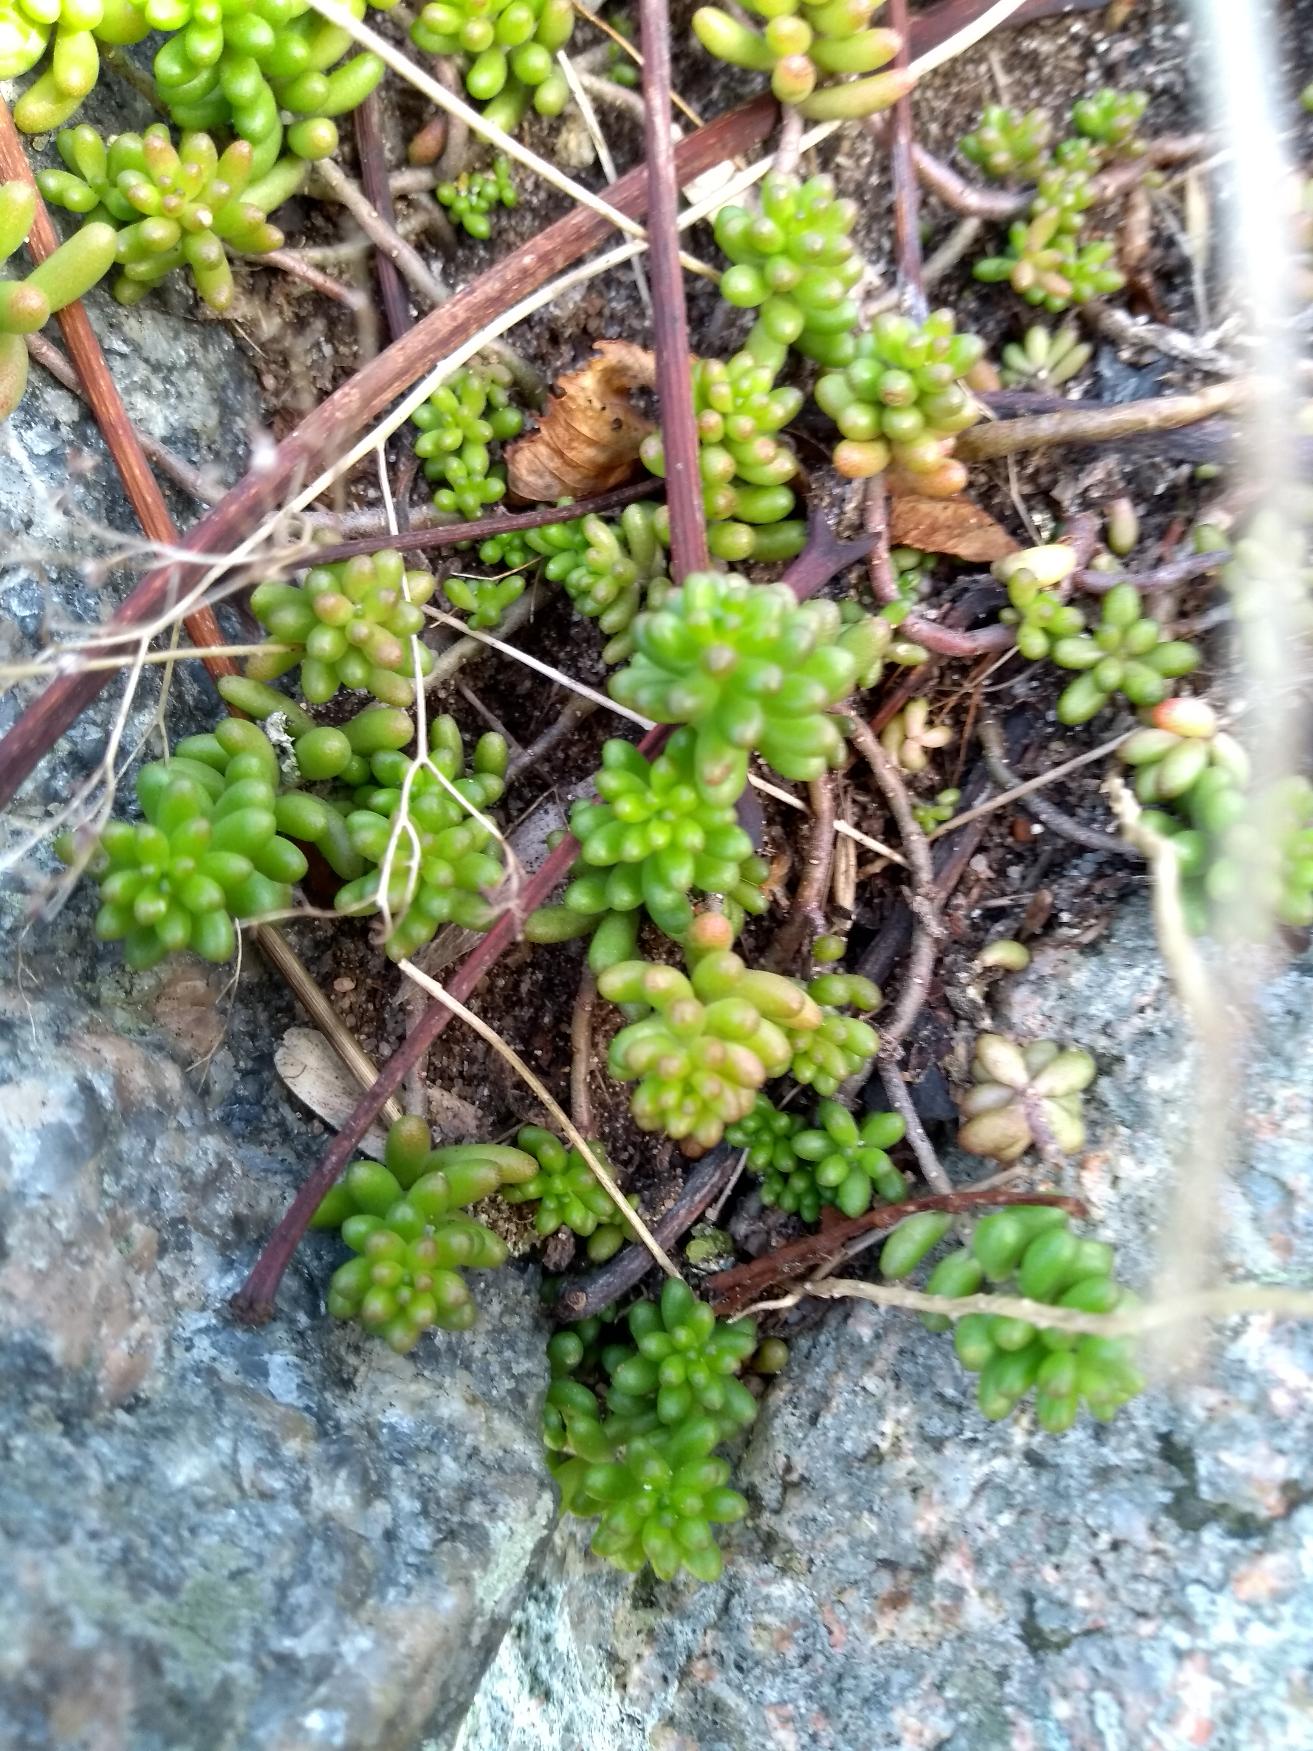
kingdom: Plantae
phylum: Tracheophyta
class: Magnoliopsida
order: Saxifragales
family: Crassulaceae
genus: Sedum
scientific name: Sedum album
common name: Hvid stenurt
